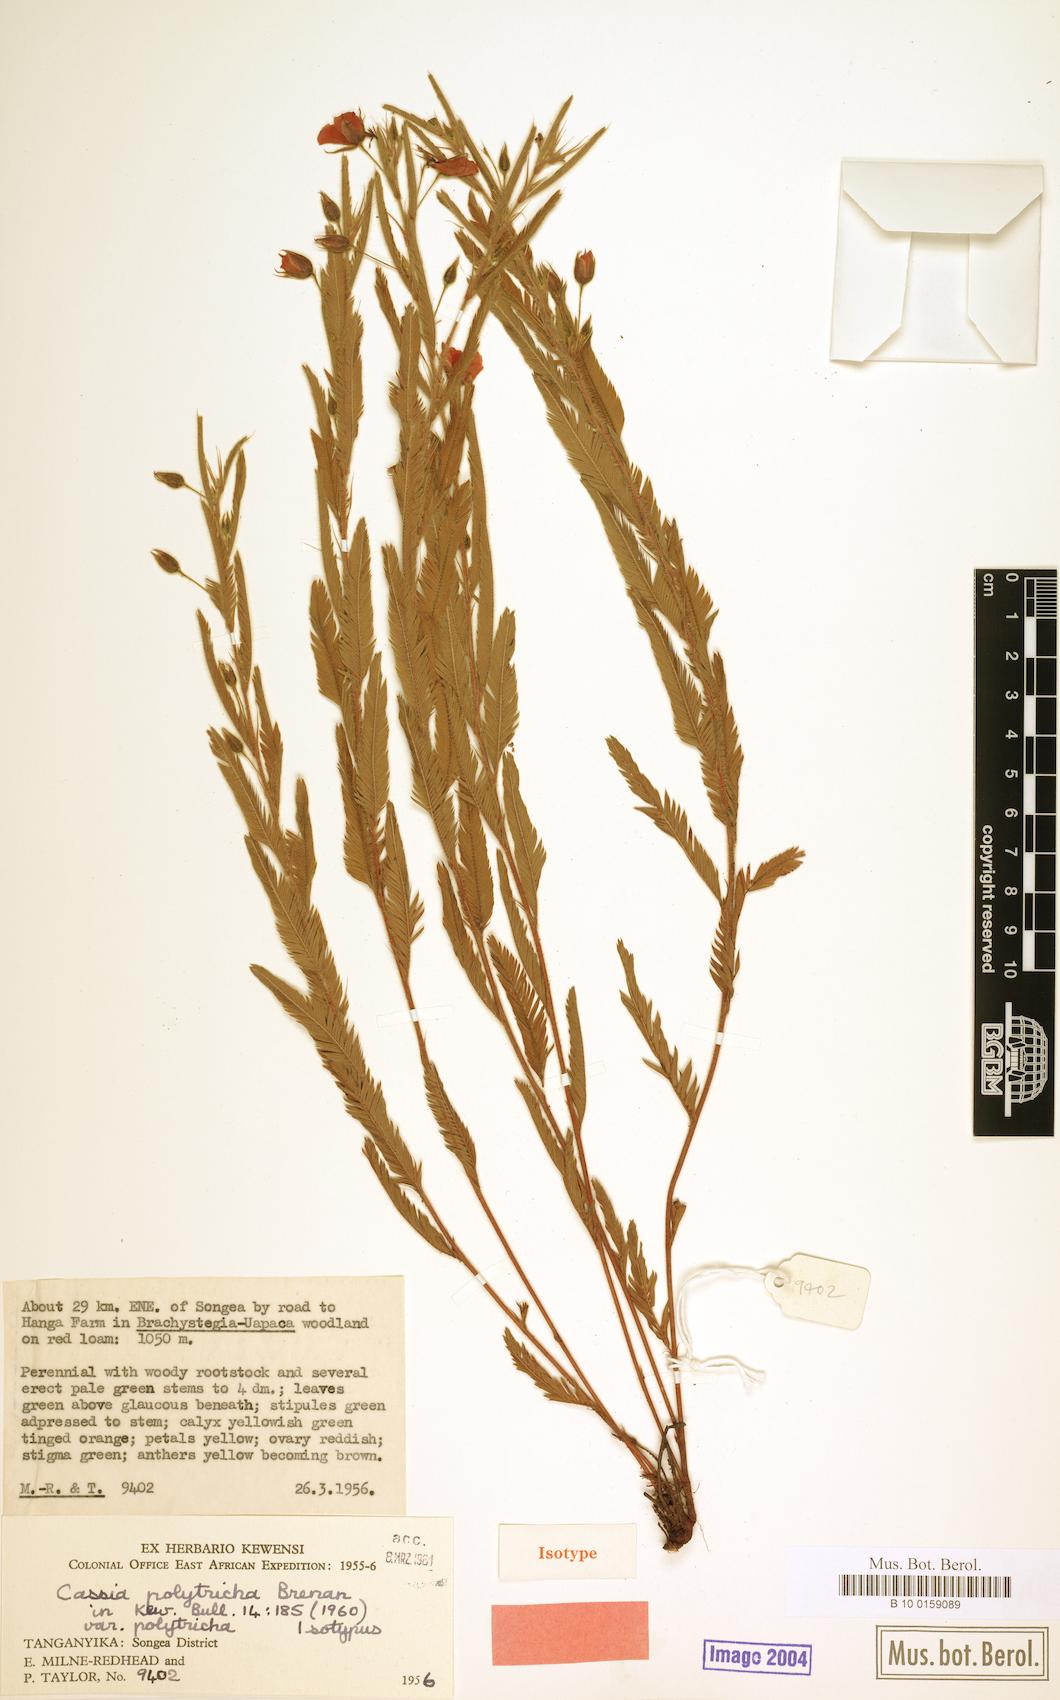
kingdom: Plantae
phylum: Tracheophyta
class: Magnoliopsida
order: Fabales
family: Fabaceae
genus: Chamaecrista
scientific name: Chamaecrista polytricha
